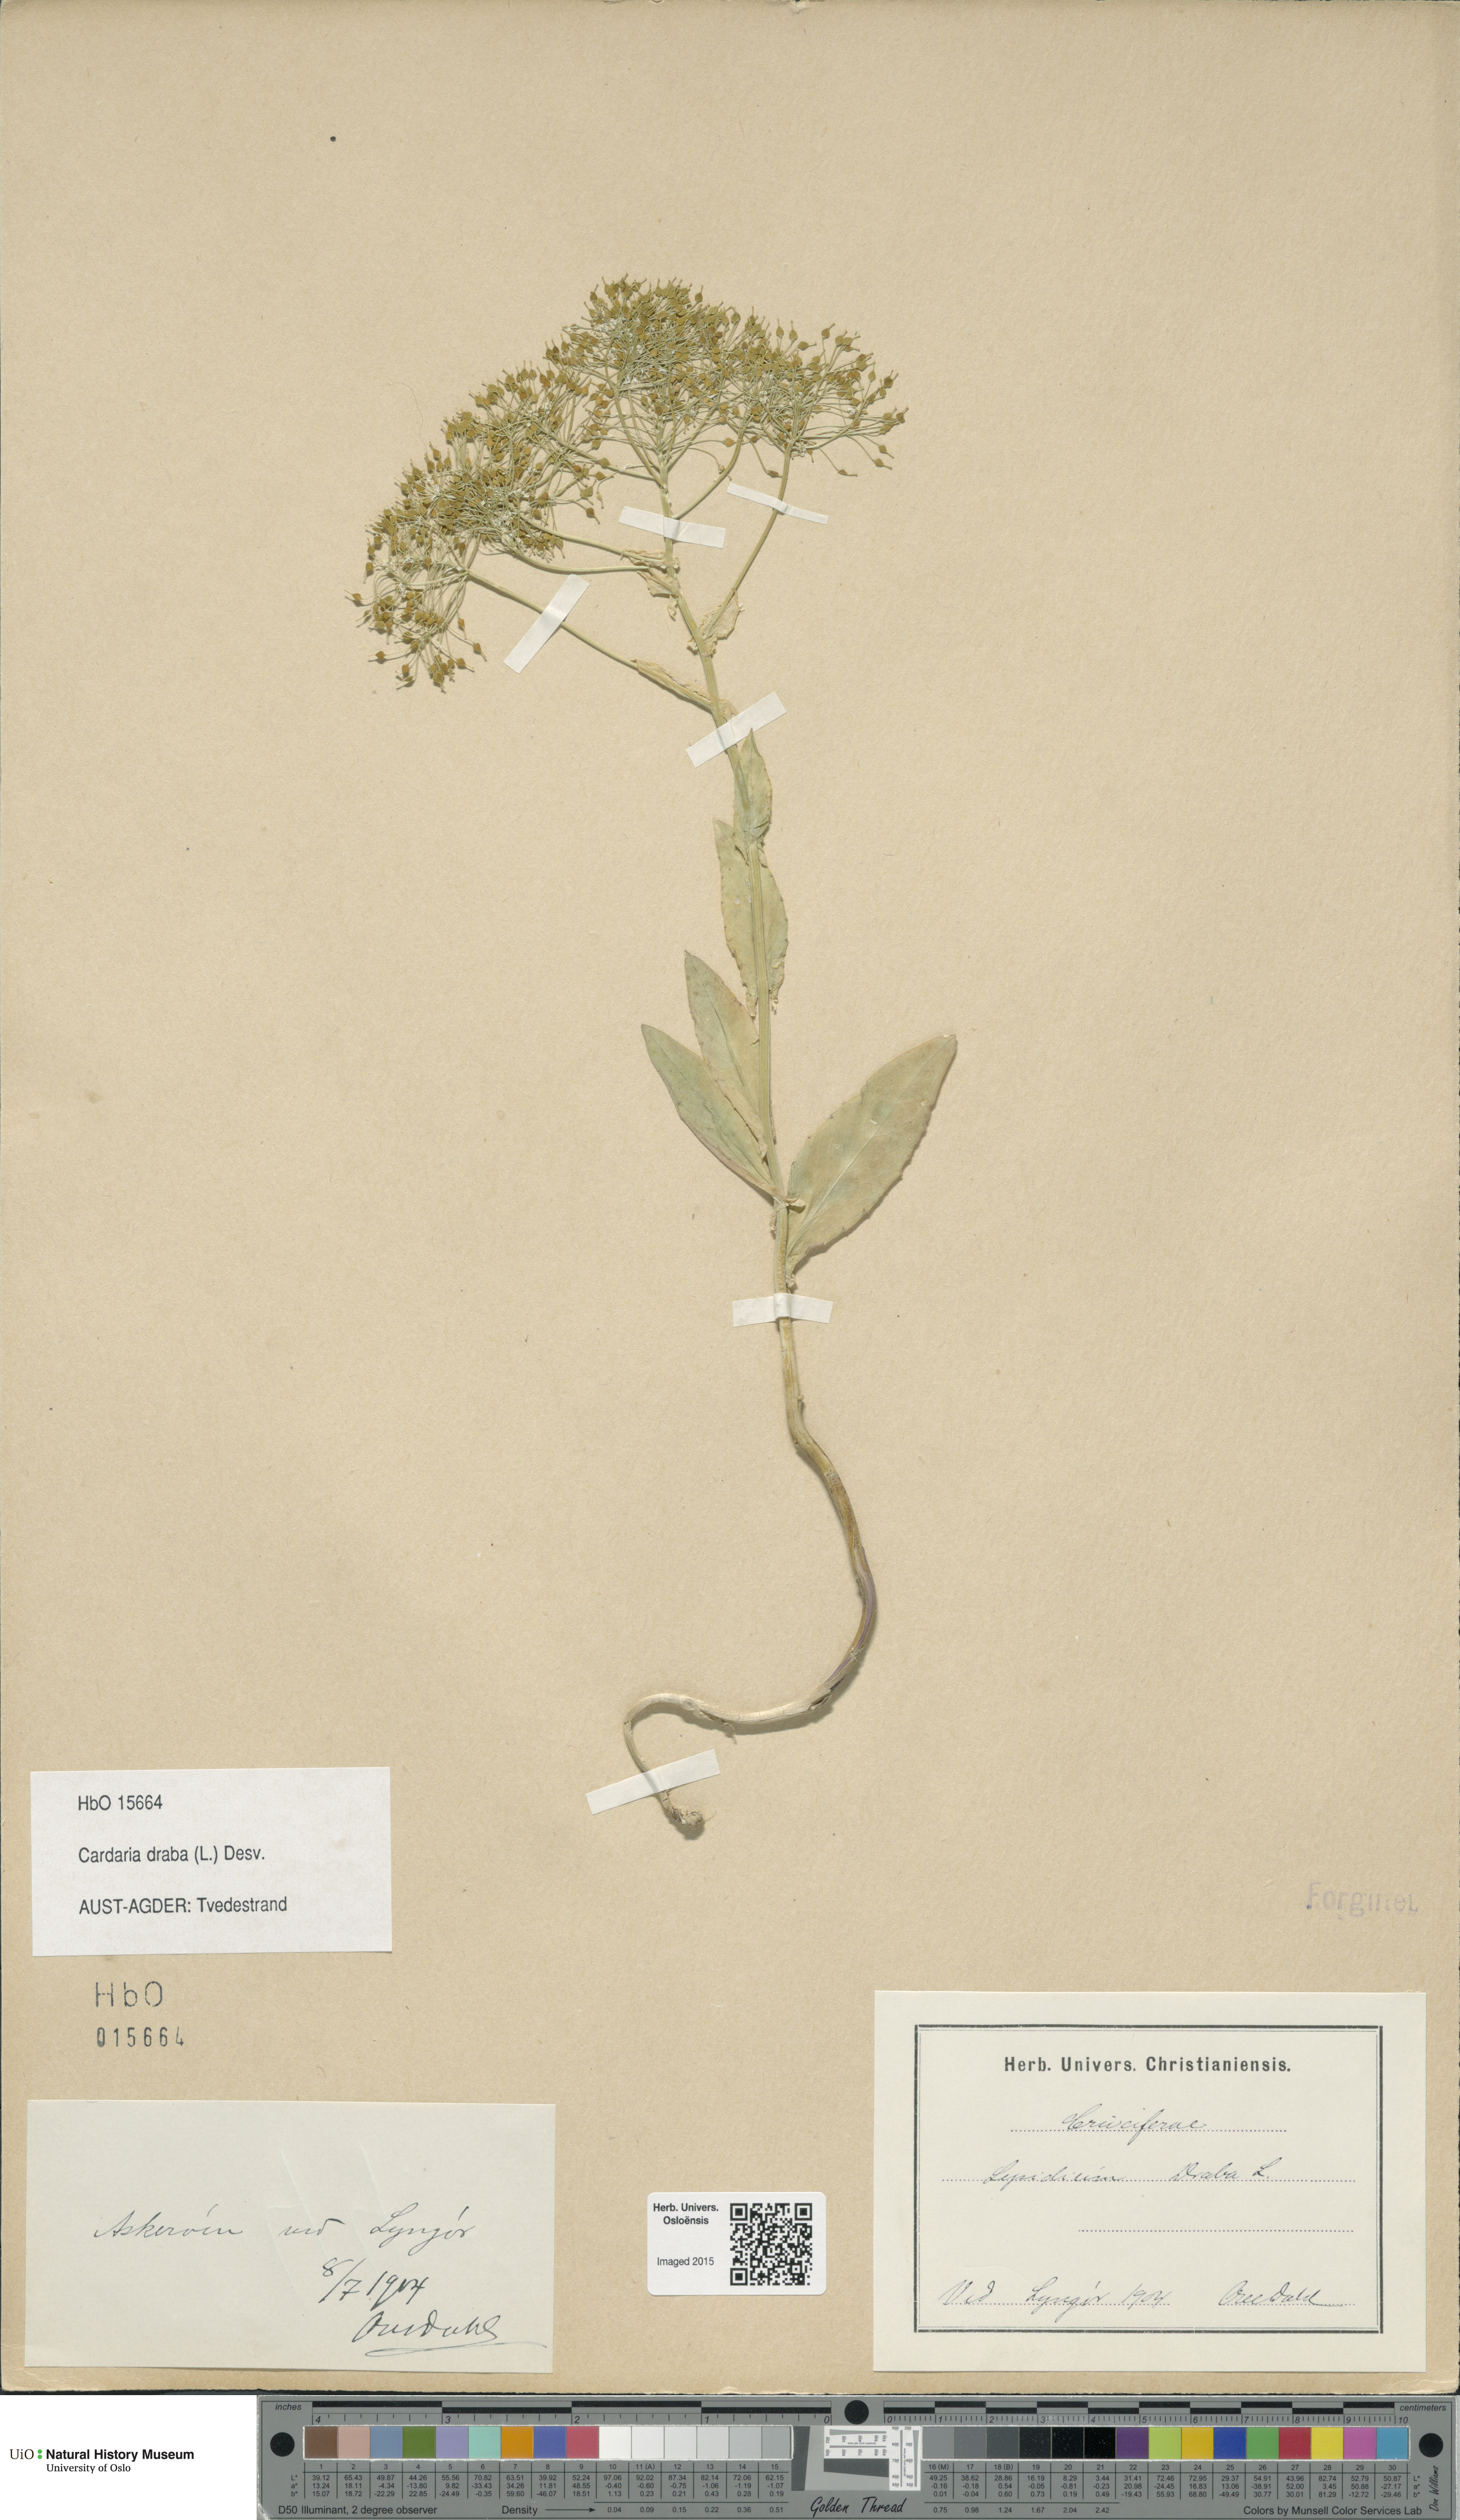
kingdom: Plantae
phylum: Tracheophyta
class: Magnoliopsida
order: Brassicales
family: Brassicaceae
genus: Lepidium
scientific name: Lepidium draba
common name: Hoary cress
